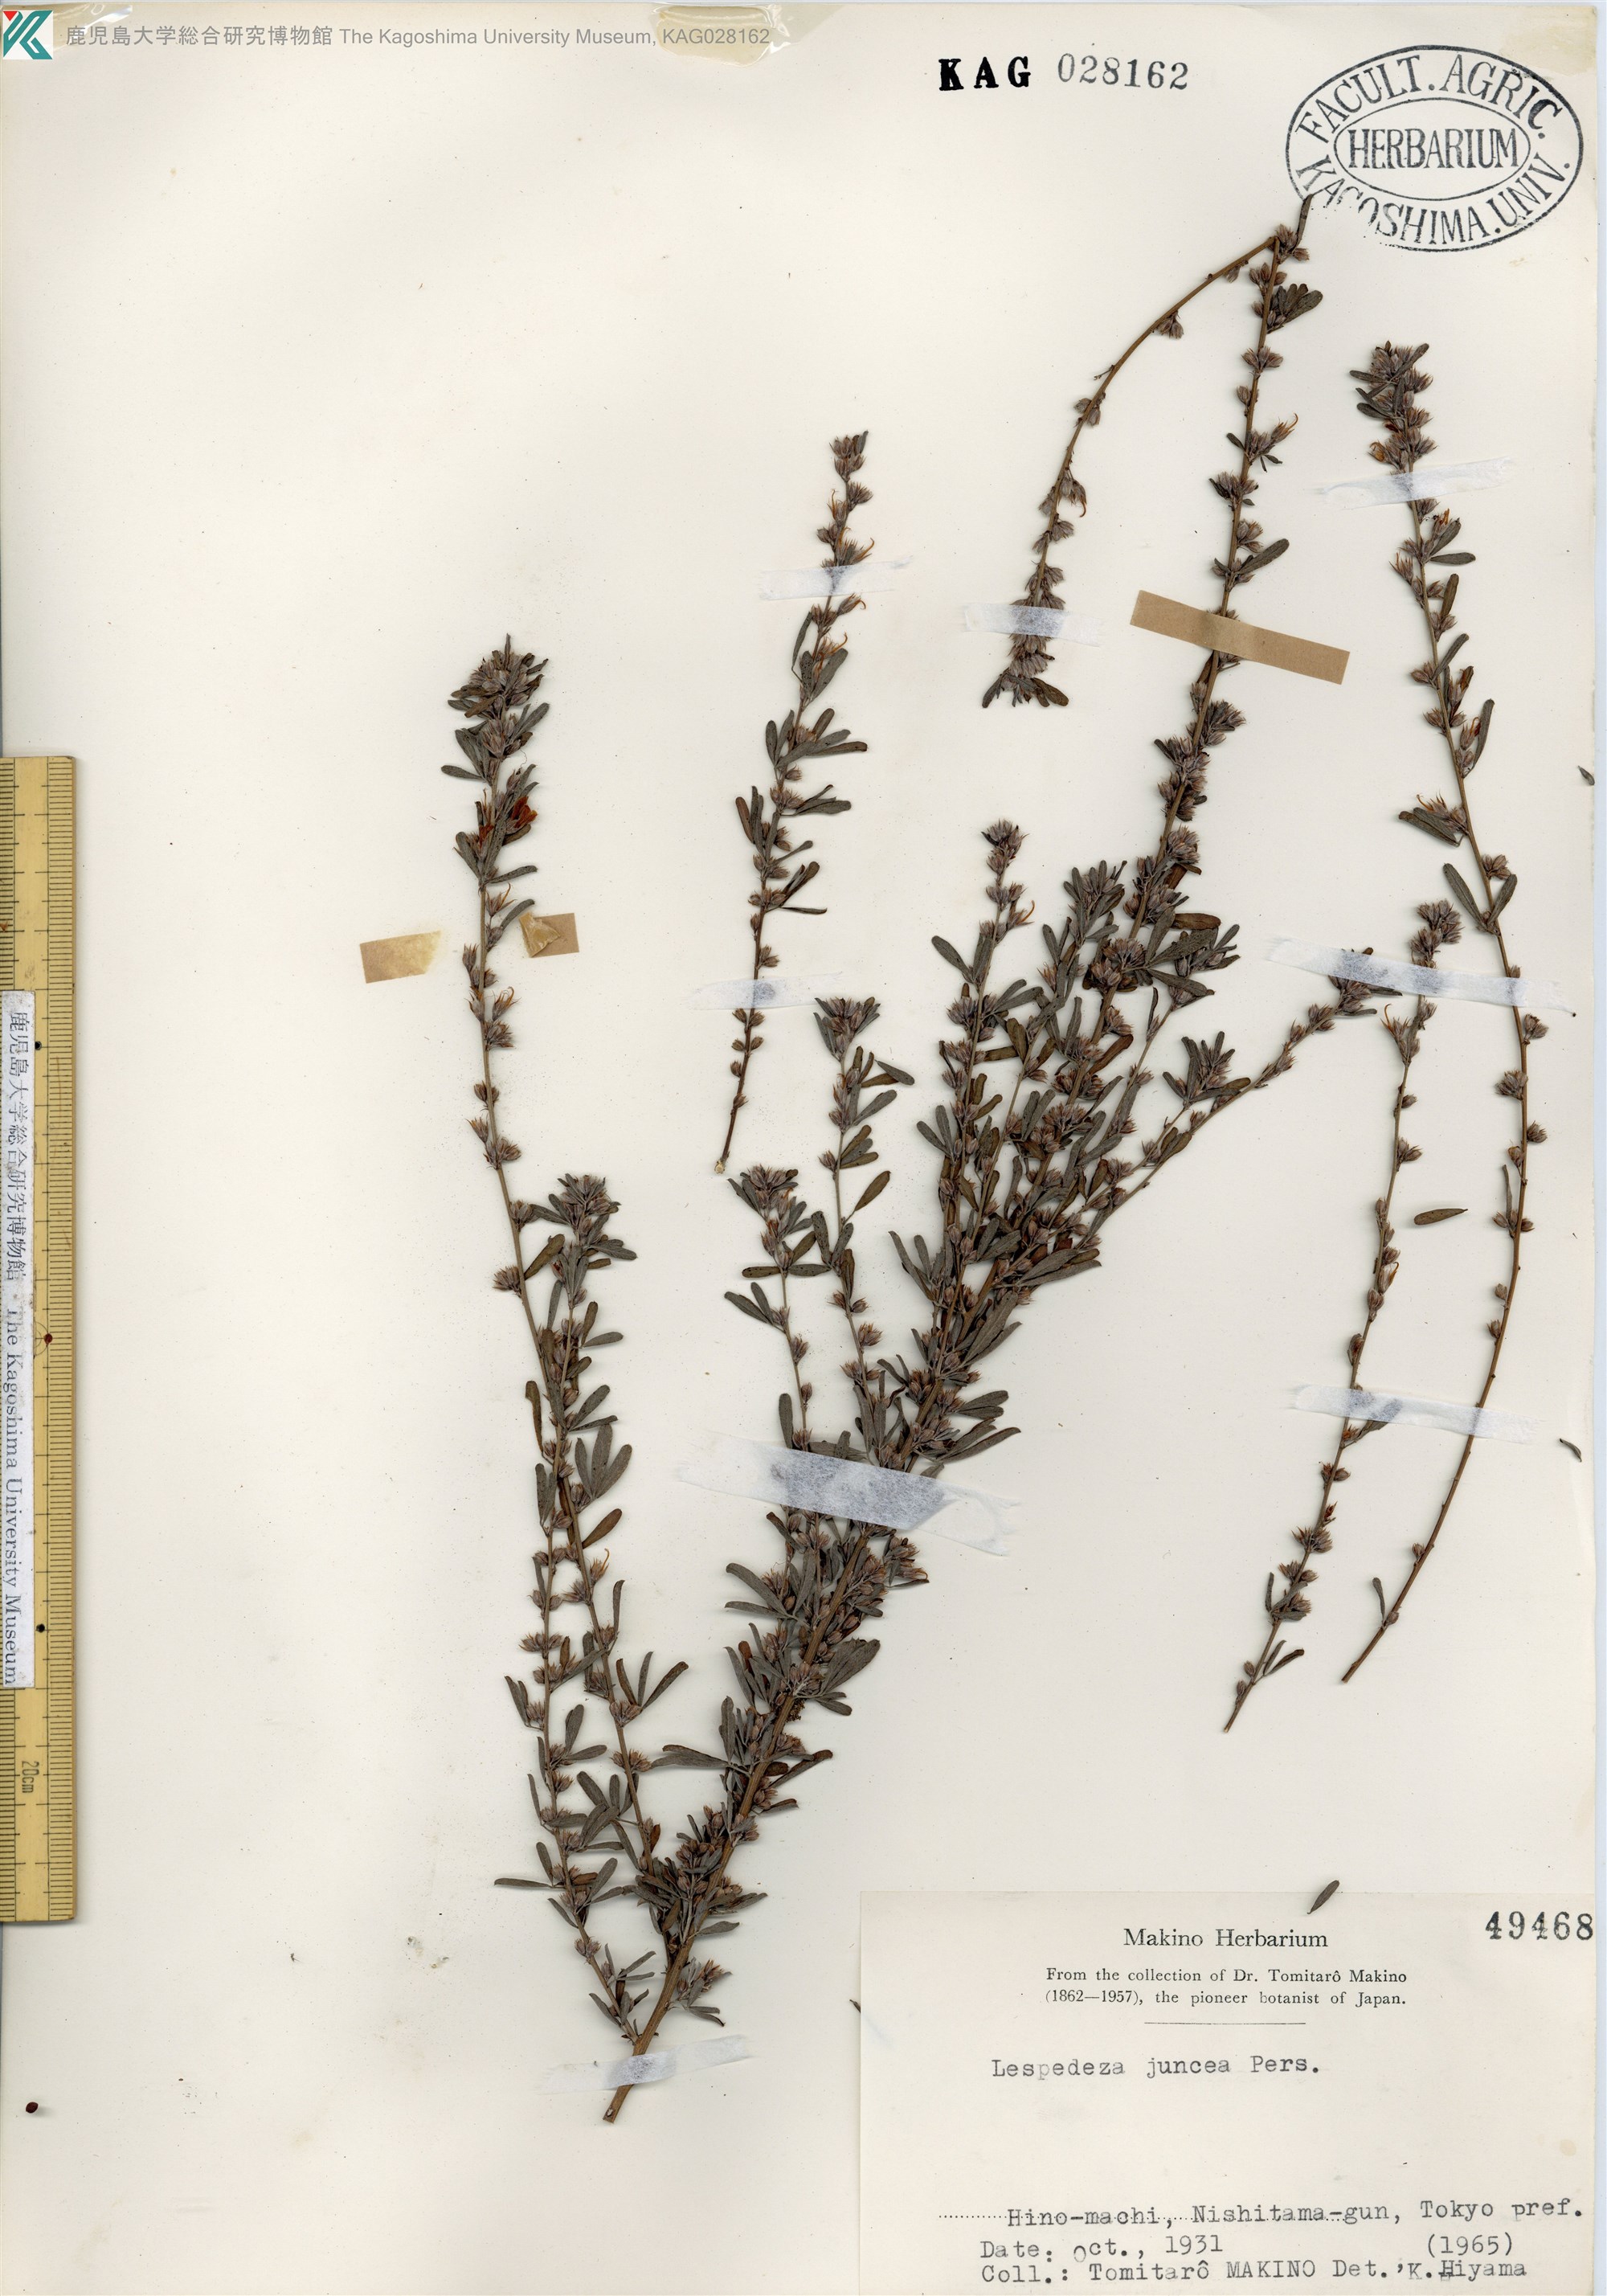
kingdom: Plantae
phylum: Tracheophyta
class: Magnoliopsida
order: Fabales
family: Fabaceae
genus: Lespedeza
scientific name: Lespedeza cuneata
